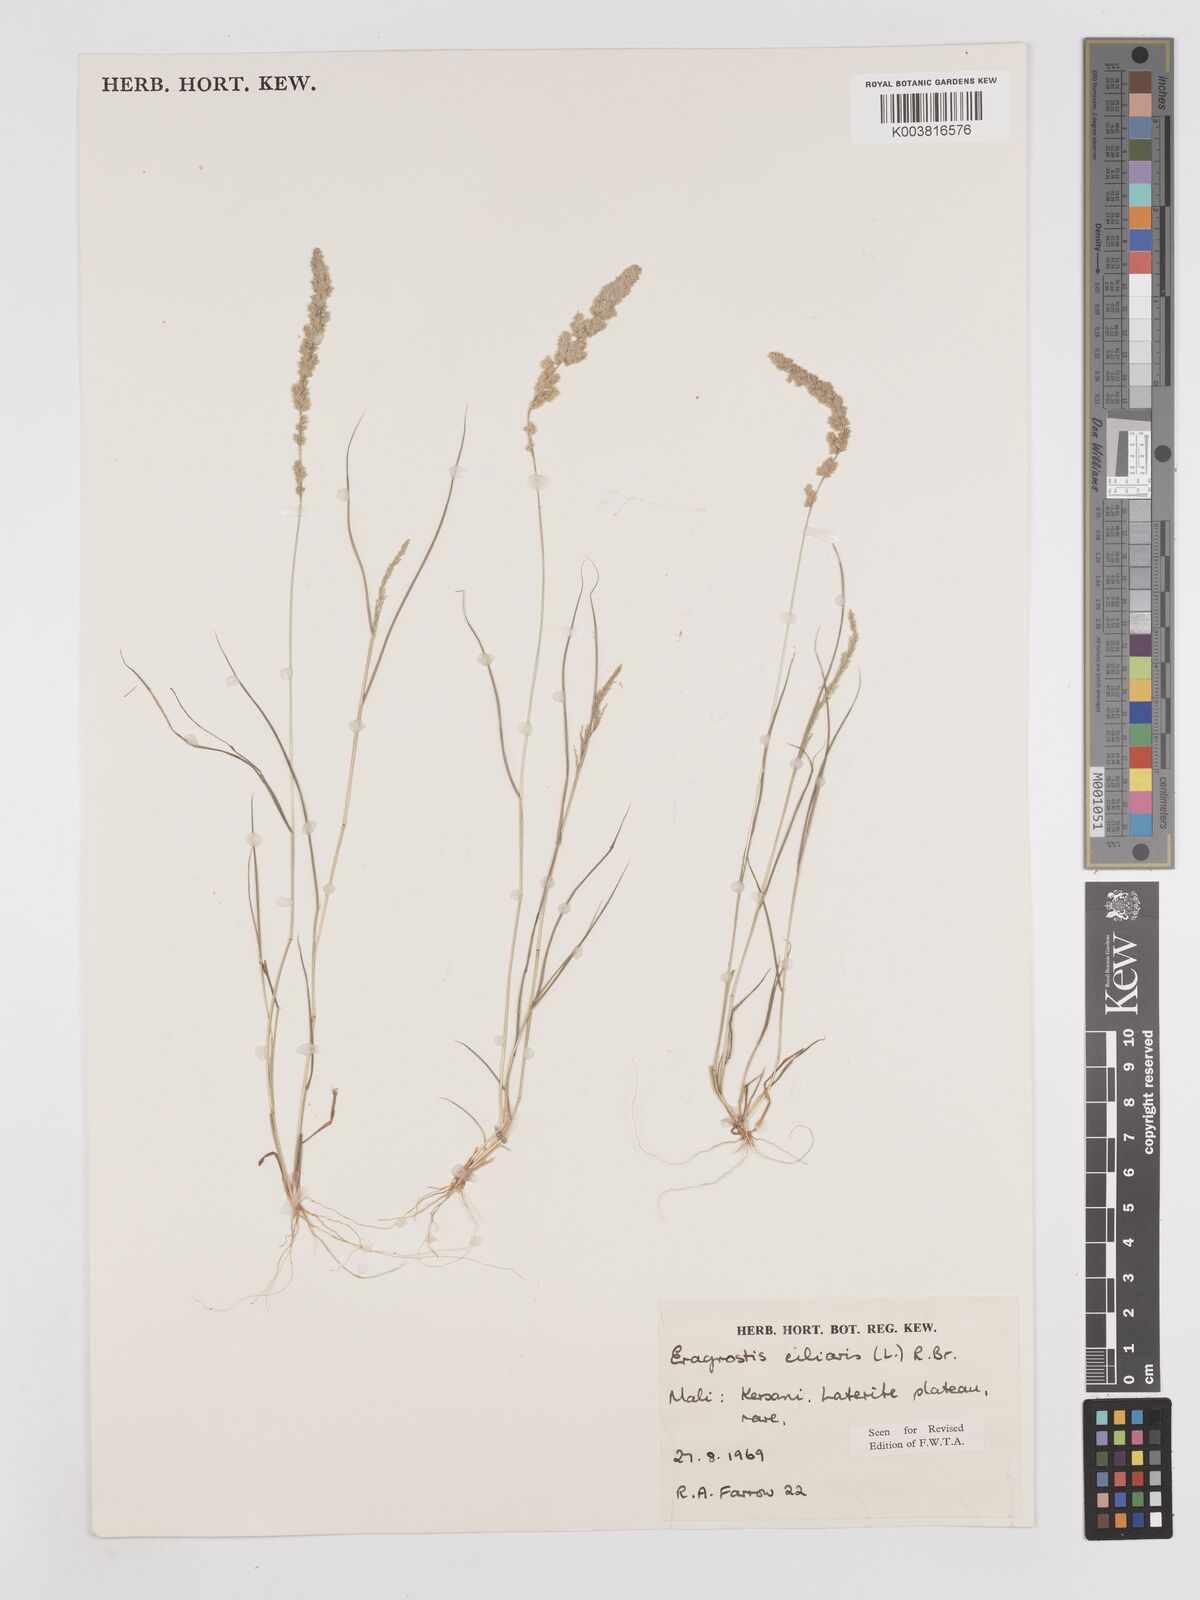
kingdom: Plantae
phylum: Tracheophyta
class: Liliopsida
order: Poales
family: Poaceae
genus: Eragrostis
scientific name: Eragrostis ciliaris
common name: Gophertail lovegrass
